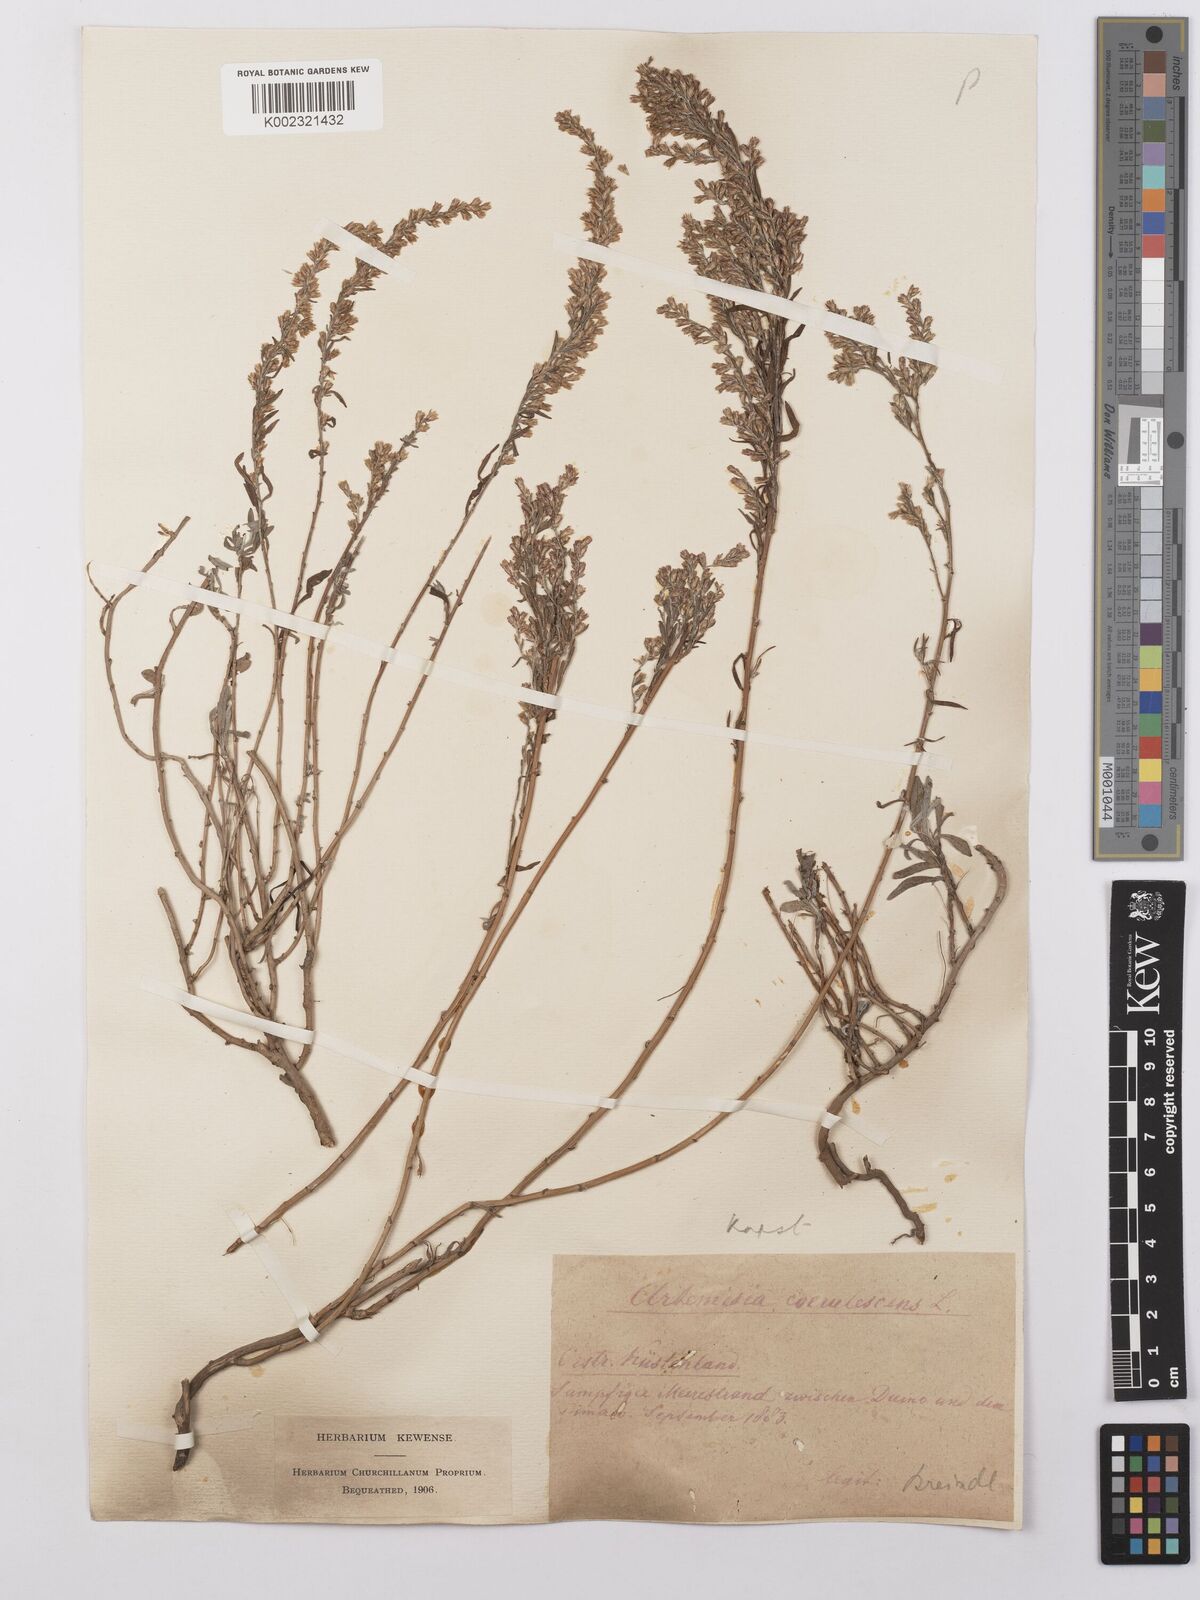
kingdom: Plantae
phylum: Tracheophyta
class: Magnoliopsida
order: Asterales
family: Asteraceae
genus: Artemisia
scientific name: Artemisia caerulescens
